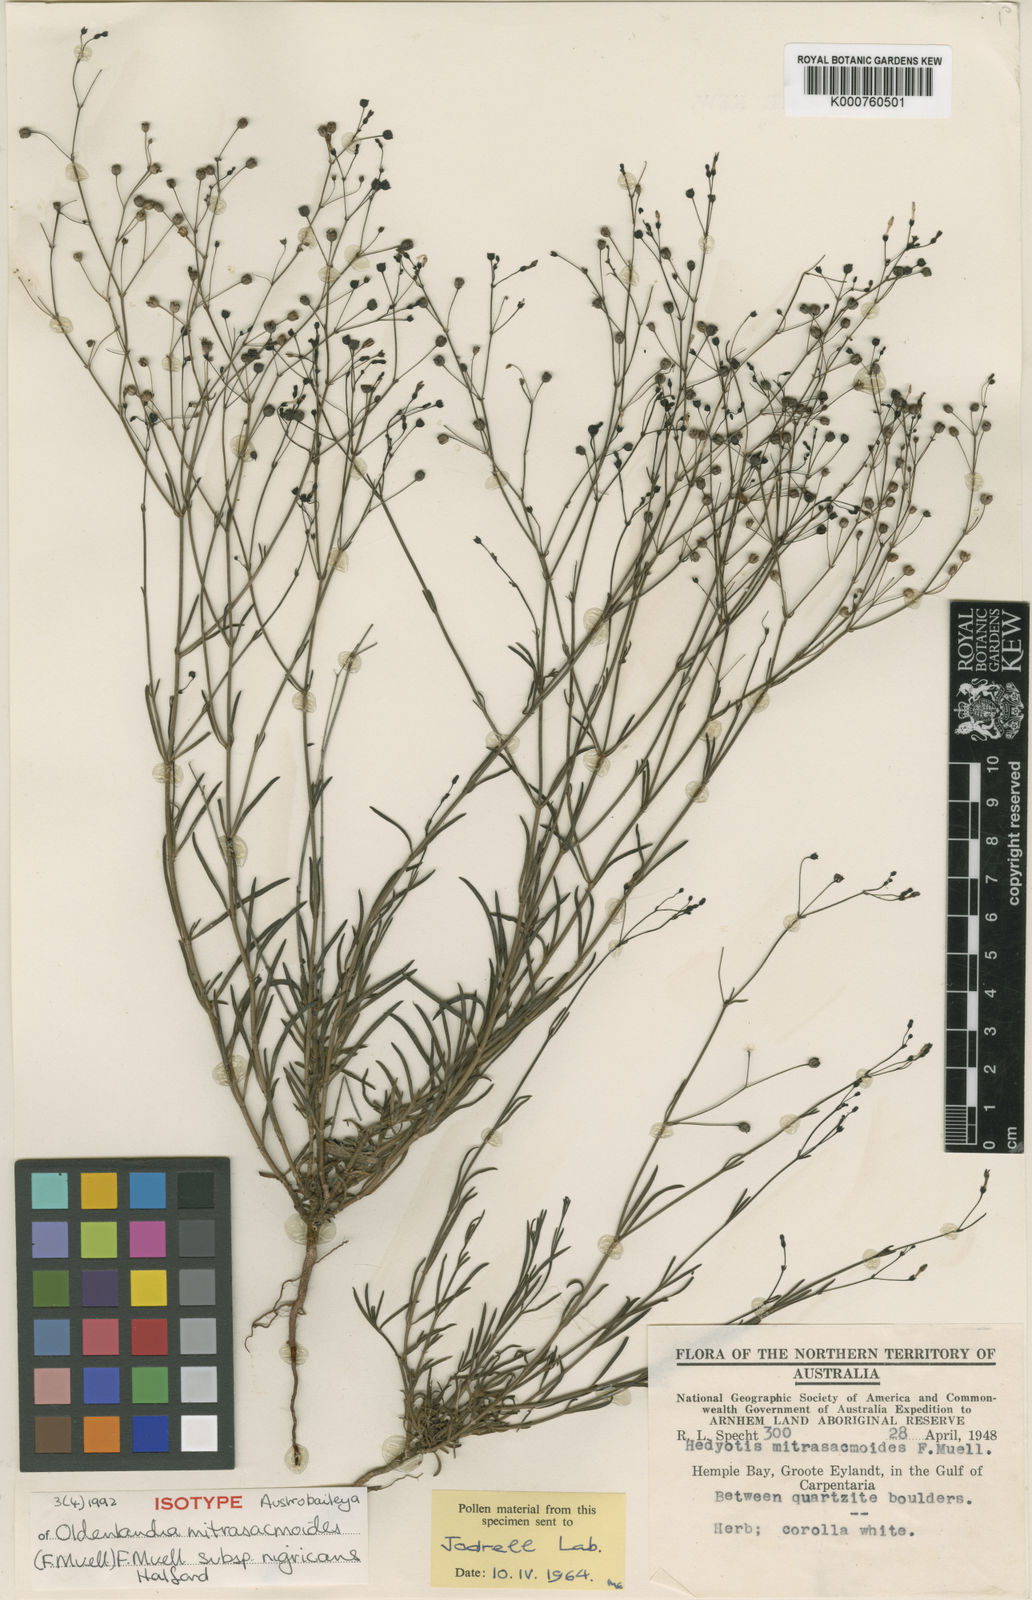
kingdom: Plantae
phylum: Tracheophyta
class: Magnoliopsida
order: Gentianales
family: Rubiaceae
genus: Paranotis
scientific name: Paranotis mitrasacmoides
